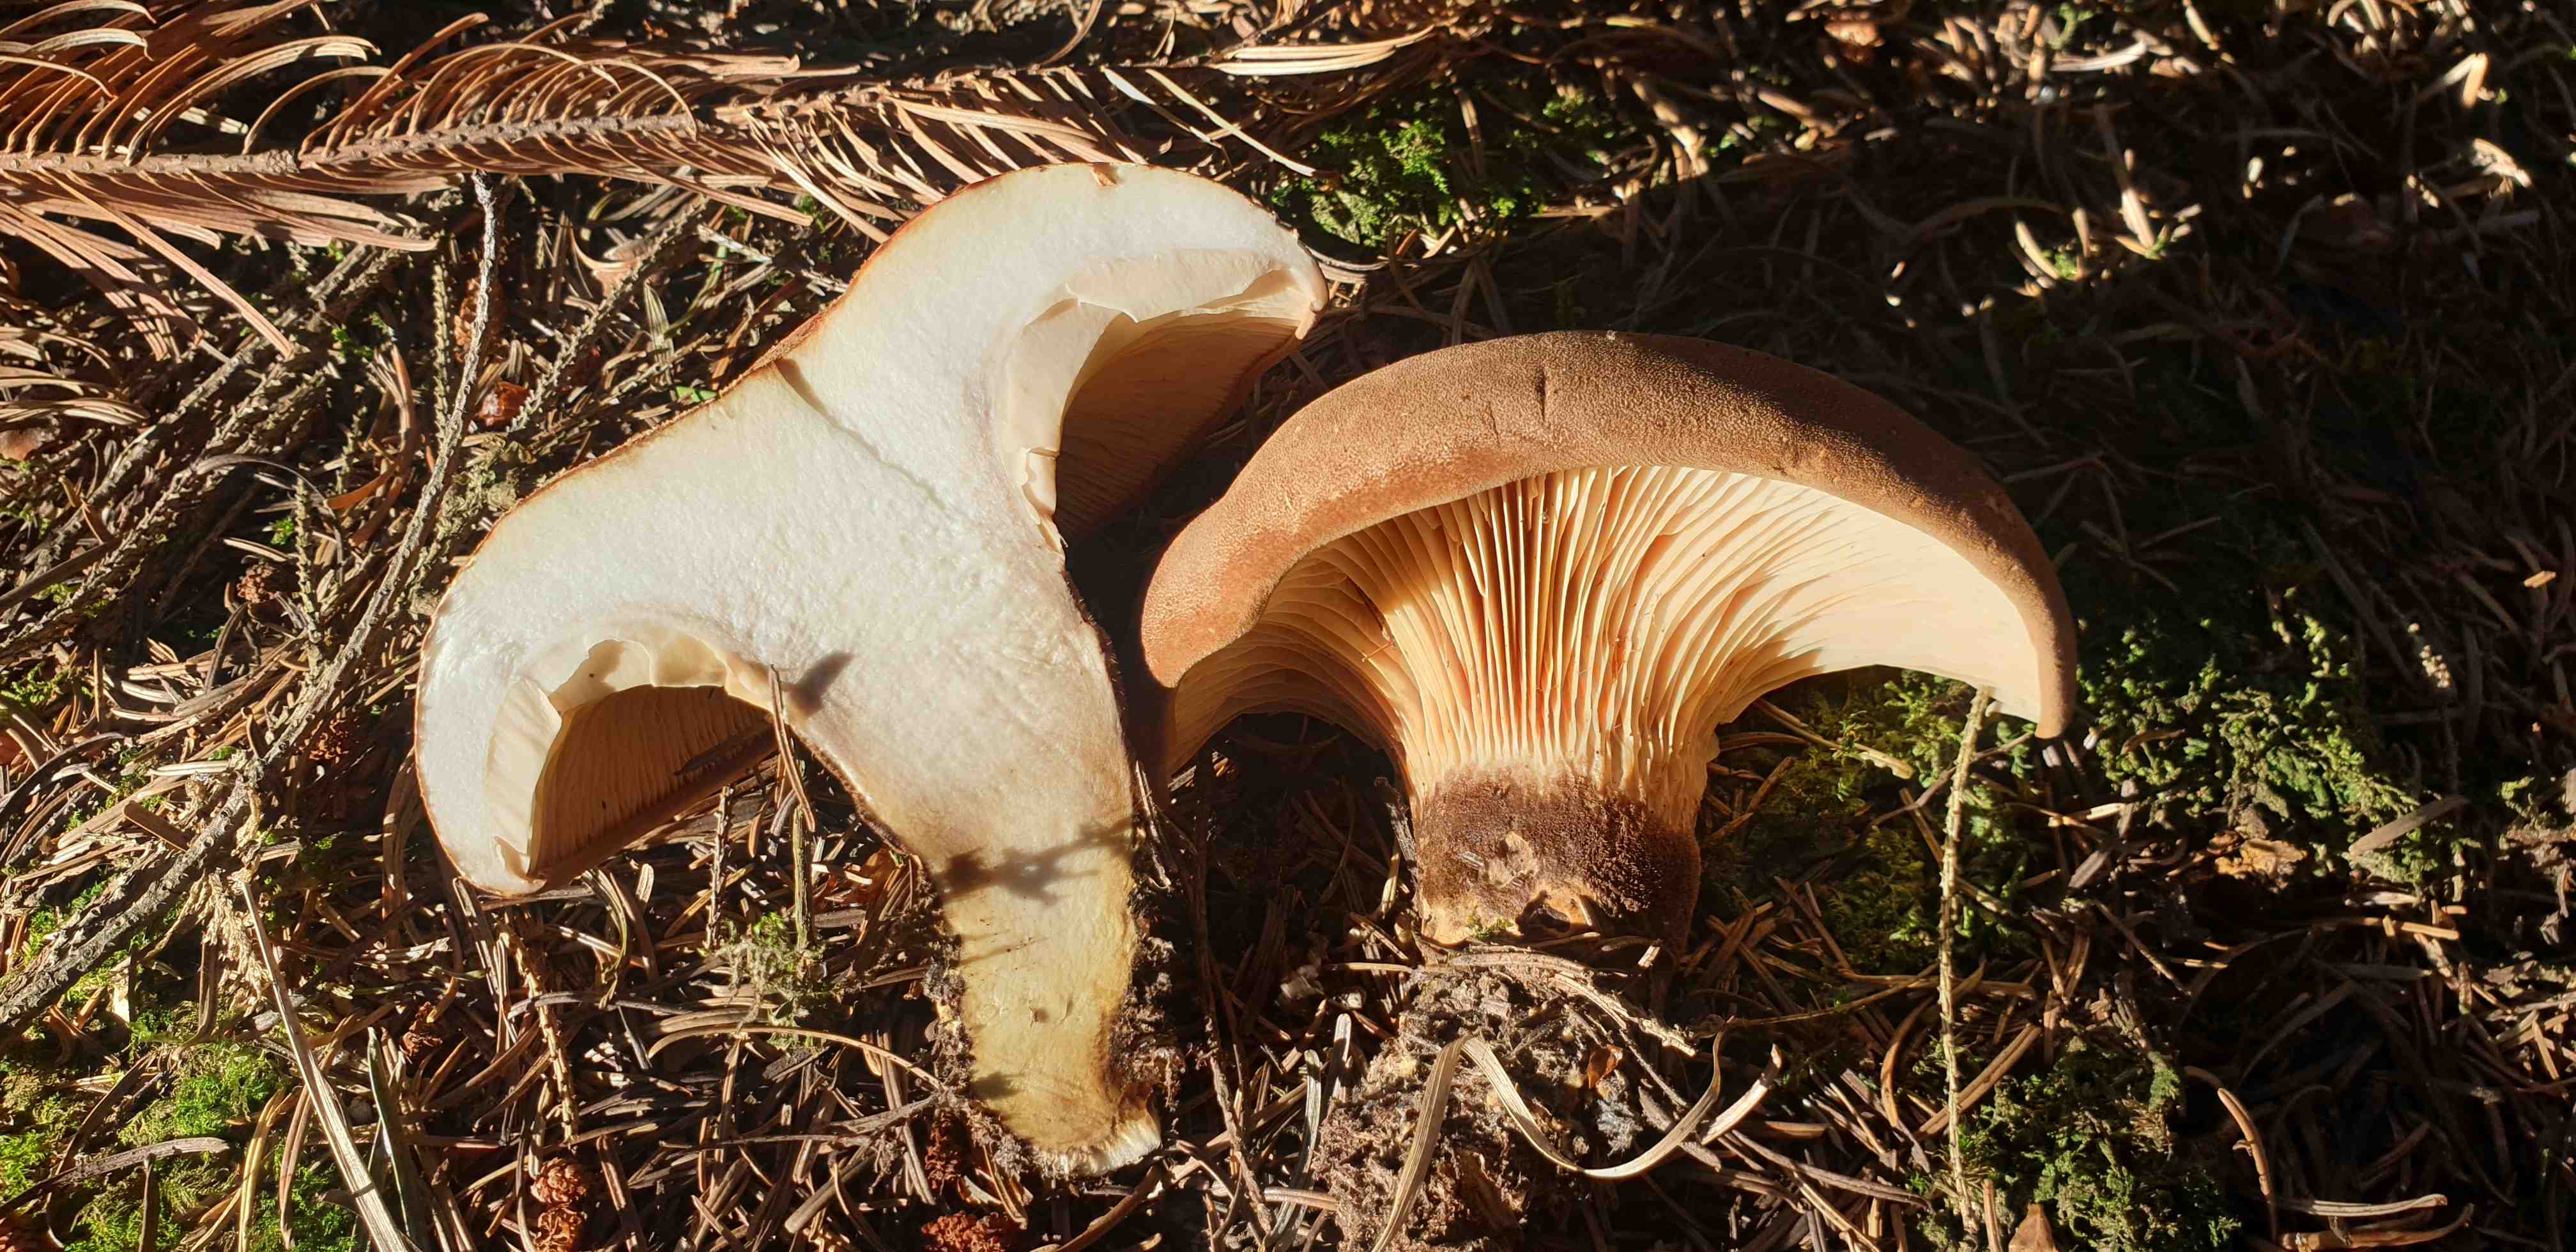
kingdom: Fungi
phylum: Basidiomycota
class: Agaricomycetes
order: Boletales
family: Tapinellaceae
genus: Tapinella
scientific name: Tapinella atrotomentosa
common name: sortfiltet viftesvamp
